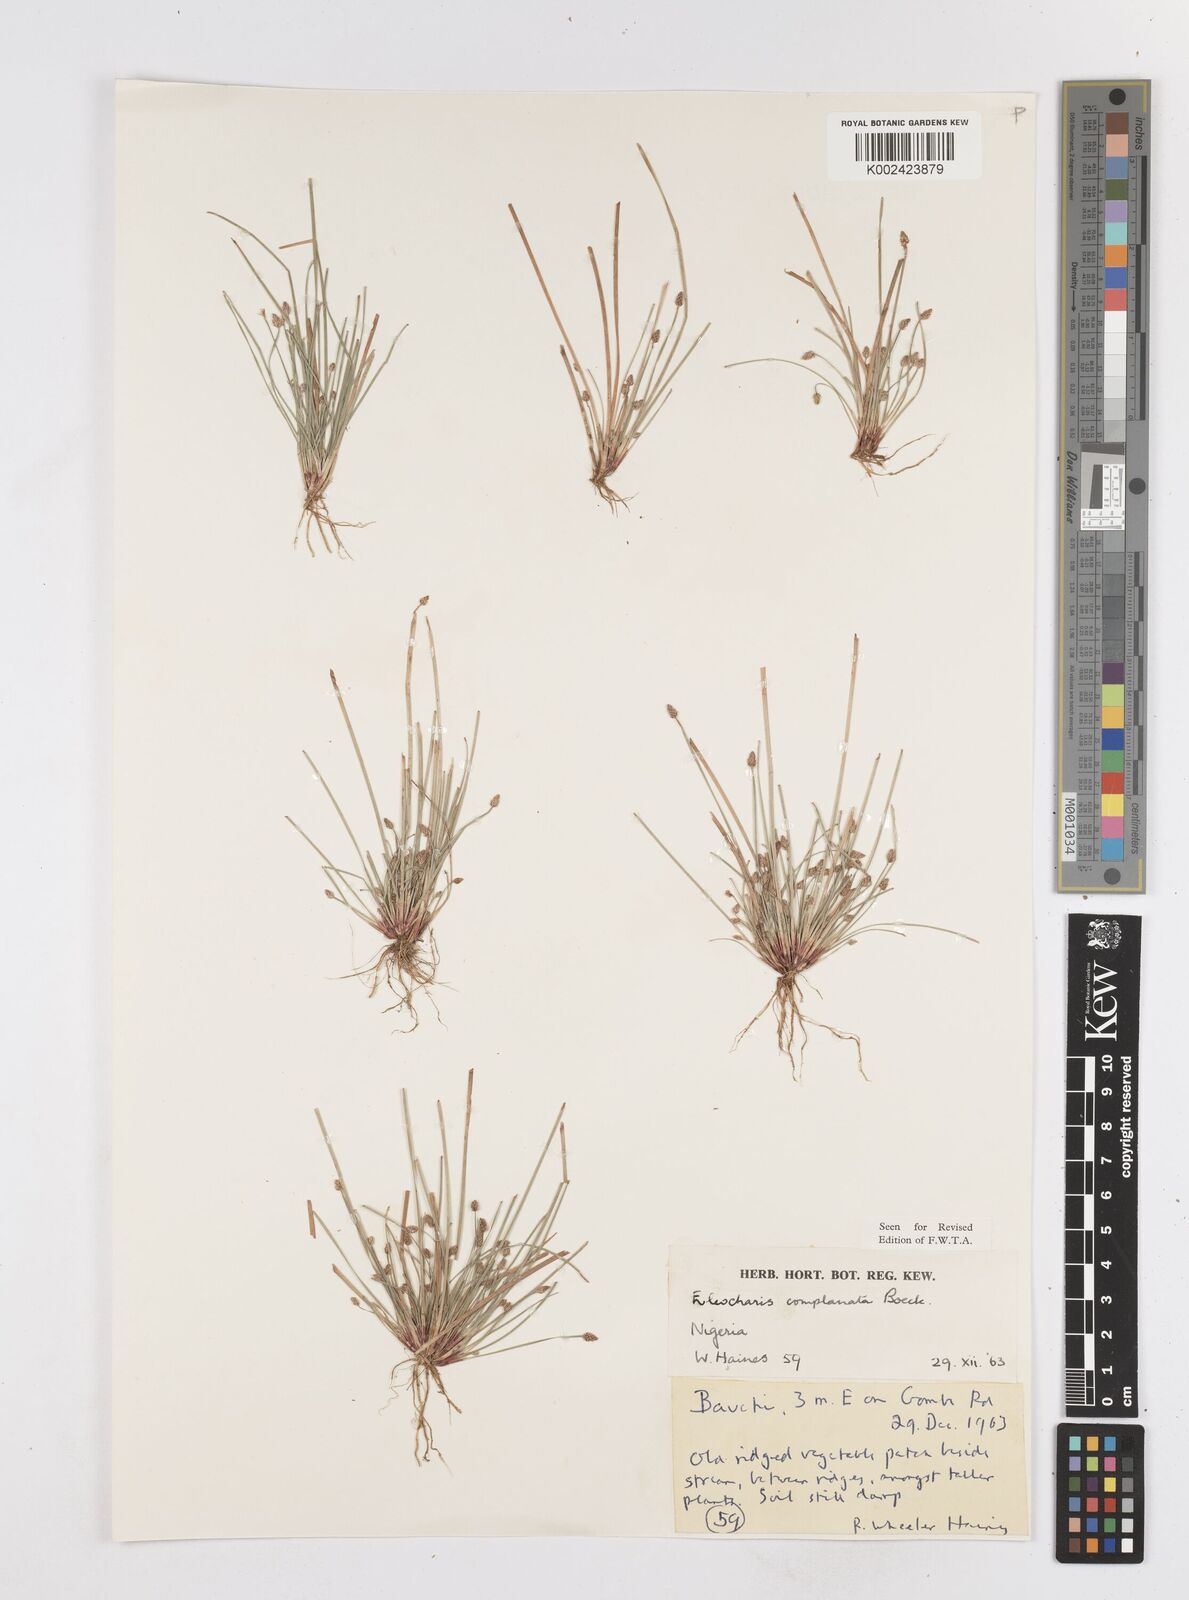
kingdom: Plantae
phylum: Tracheophyta
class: Liliopsida
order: Poales
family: Cyperaceae
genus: Eleocharis
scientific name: Eleocharis complanata
